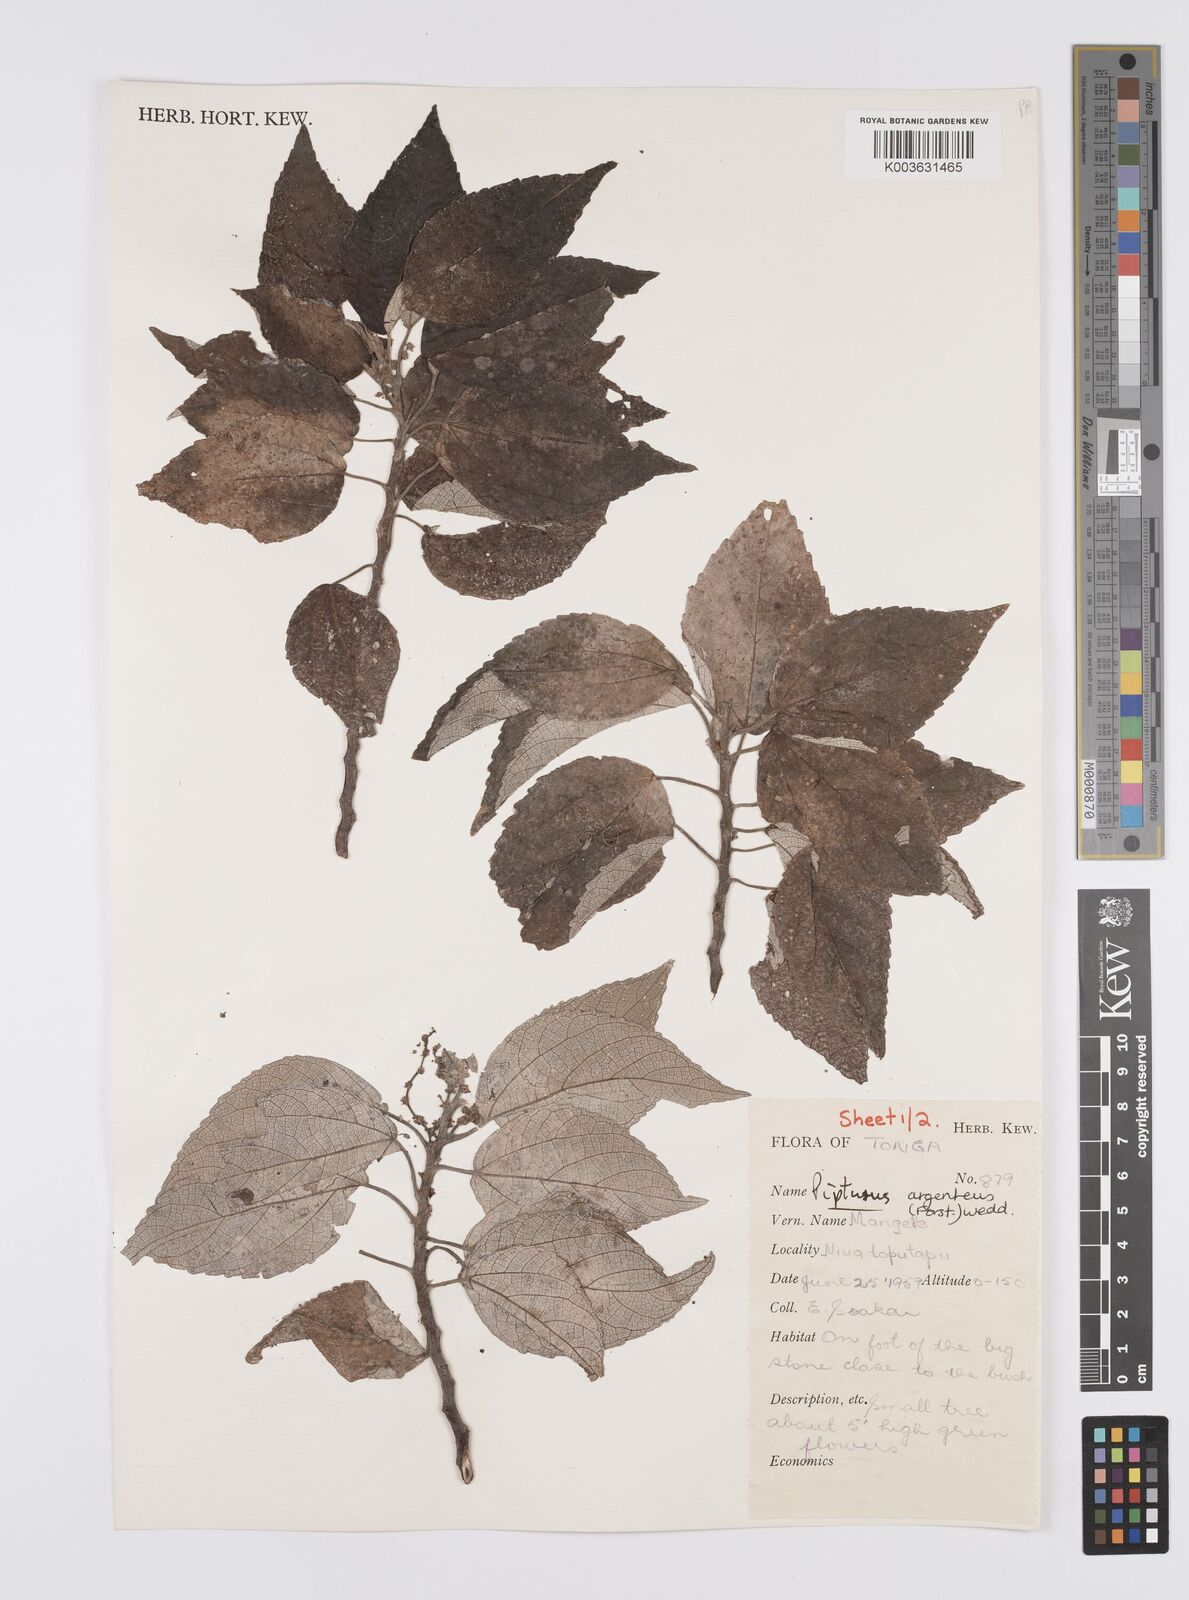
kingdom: Plantae
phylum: Tracheophyta
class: Magnoliopsida
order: Rosales
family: Urticaceae
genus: Pipturus
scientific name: Pipturus argenteus
